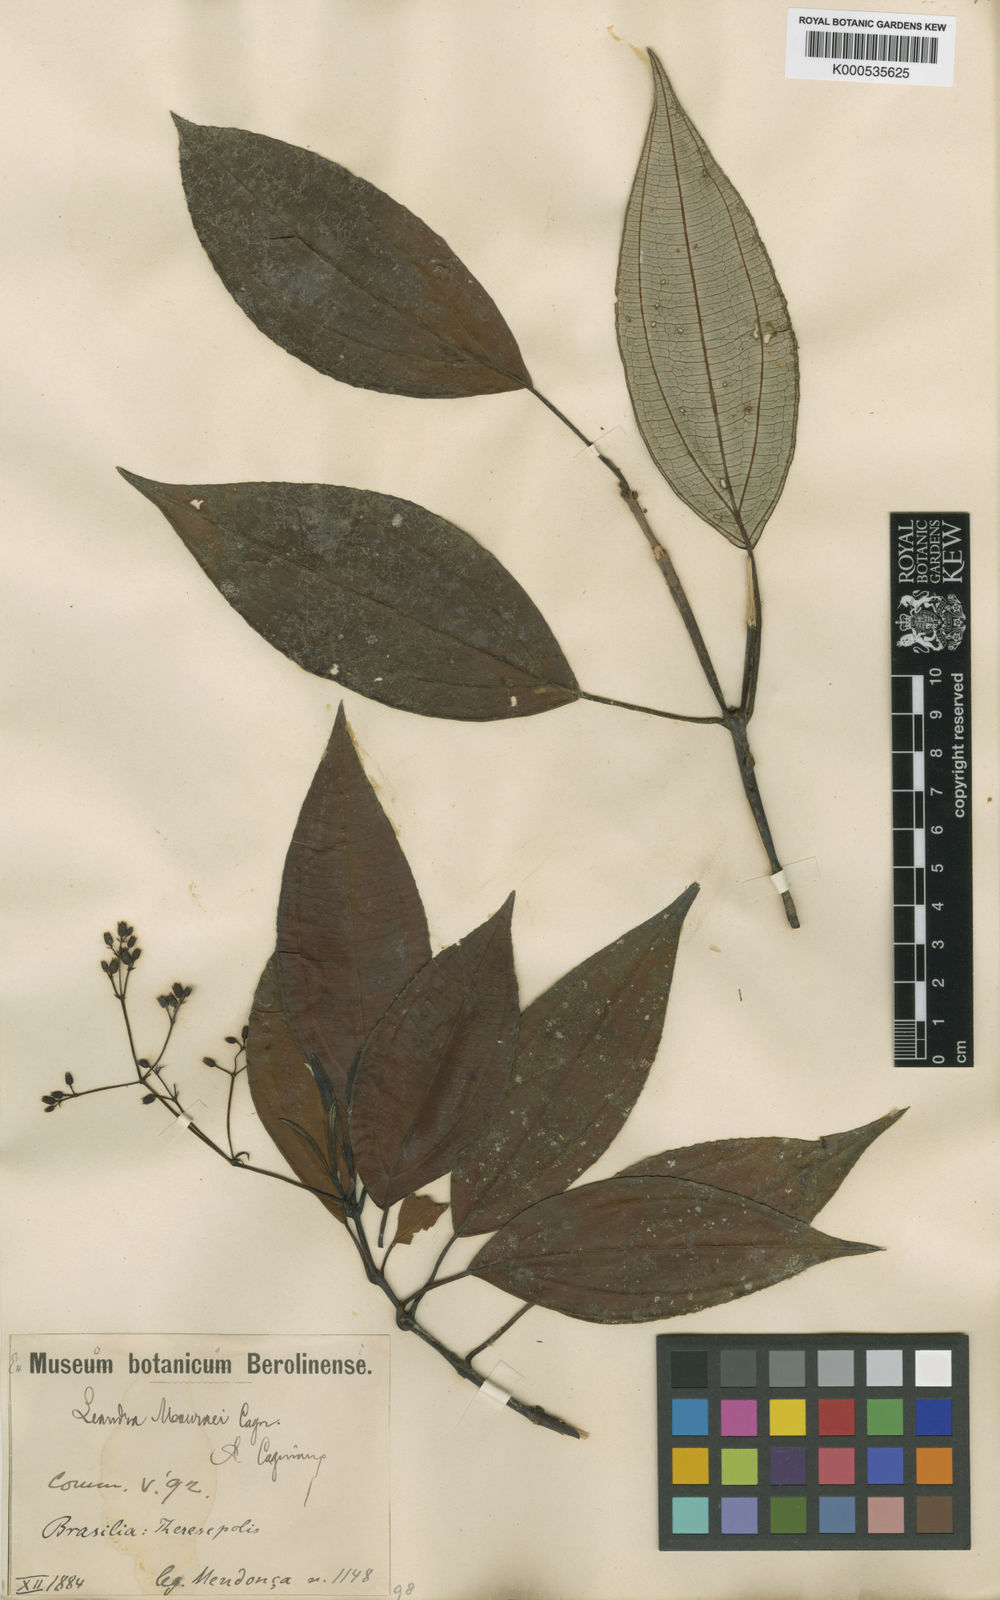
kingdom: Plantae
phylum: Tracheophyta
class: Magnoliopsida
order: Myrtales
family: Melastomataceae
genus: Miconia
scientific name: Miconia leamourae
